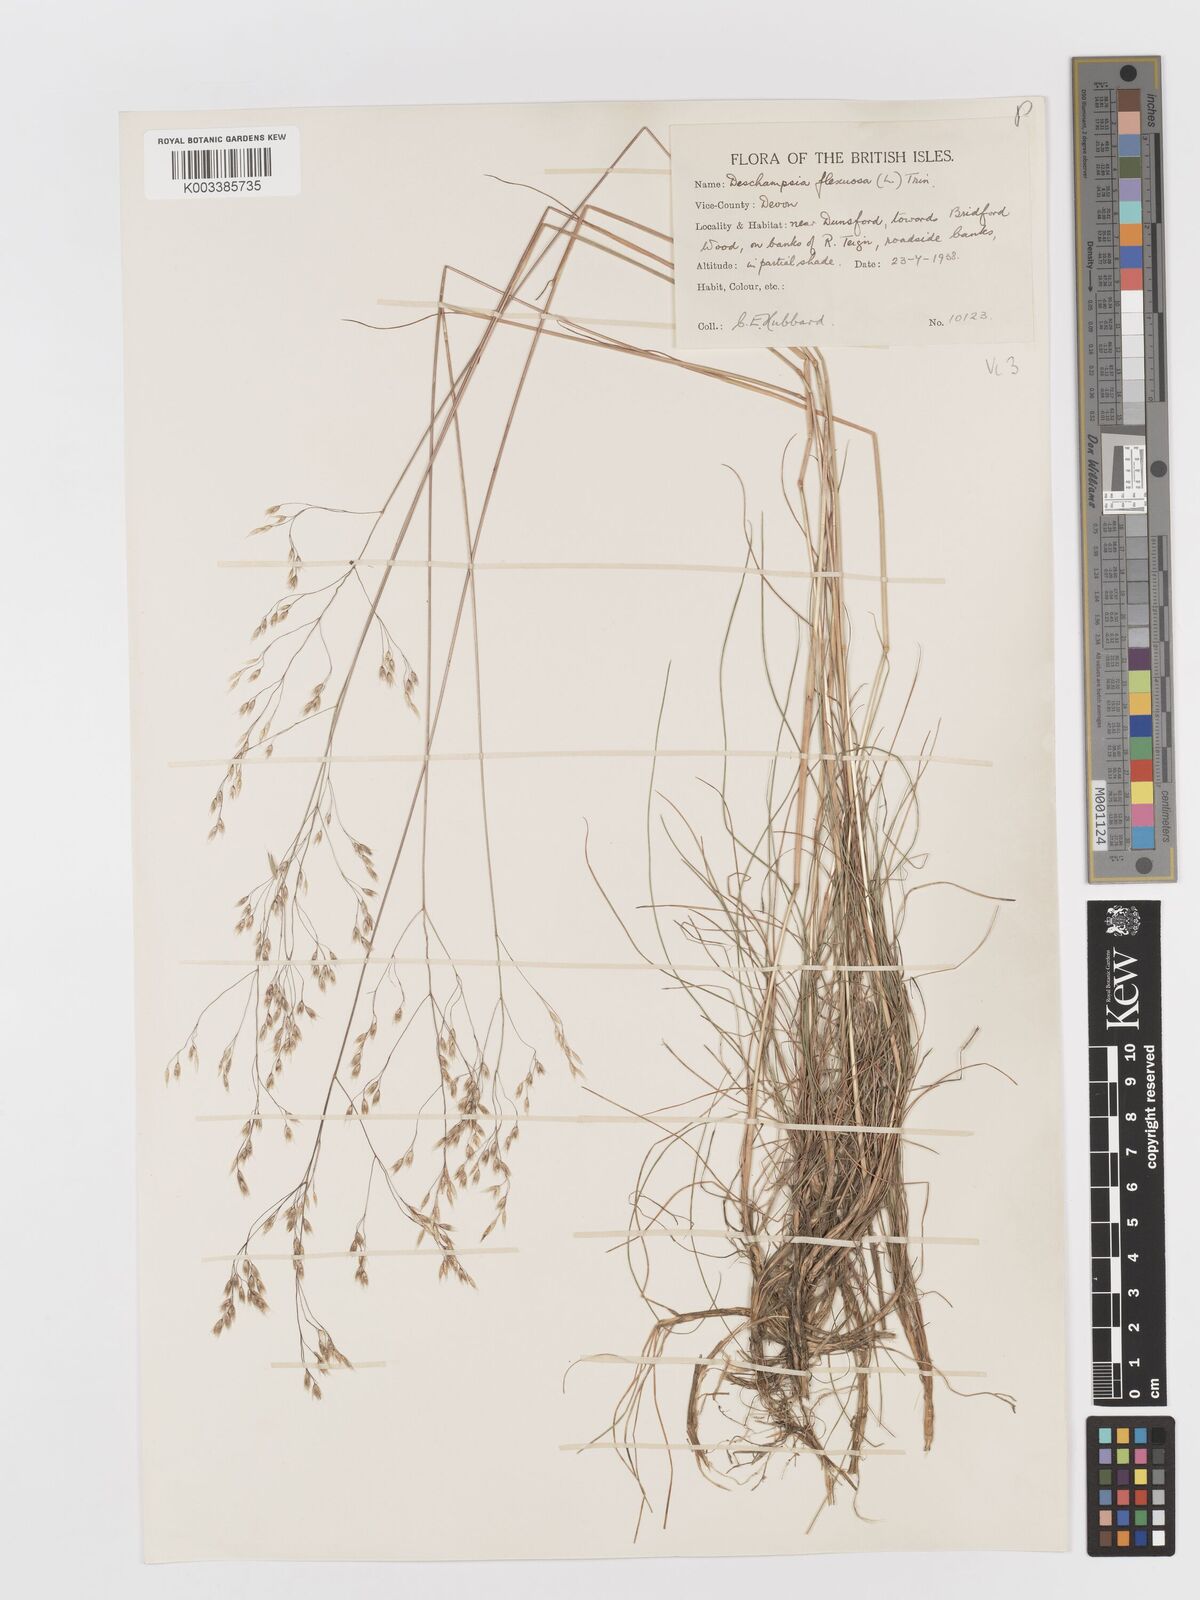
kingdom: Plantae
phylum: Tracheophyta
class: Liliopsida
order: Poales
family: Poaceae
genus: Avenella
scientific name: Avenella flexuosa
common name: Wavy hairgrass
